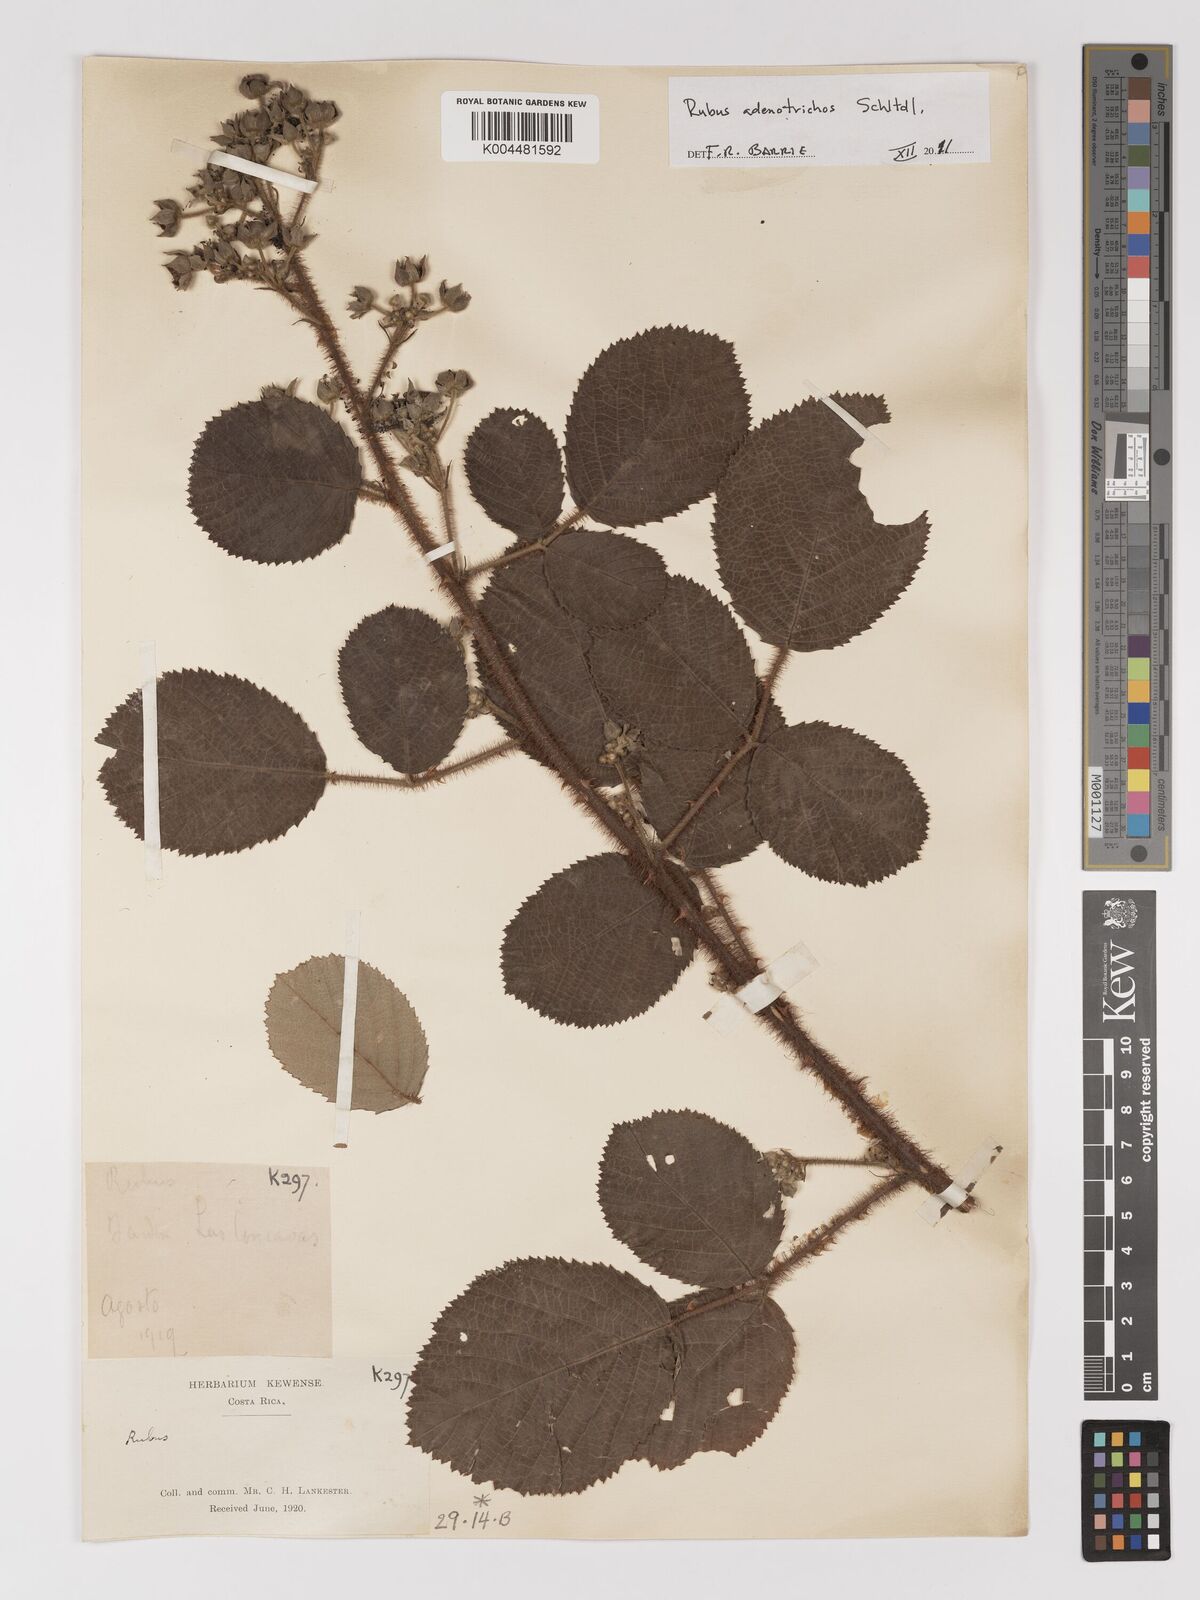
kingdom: Plantae
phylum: Tracheophyta
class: Magnoliopsida
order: Rosales
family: Rosaceae
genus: Rubus
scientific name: Rubus adenotrichos
